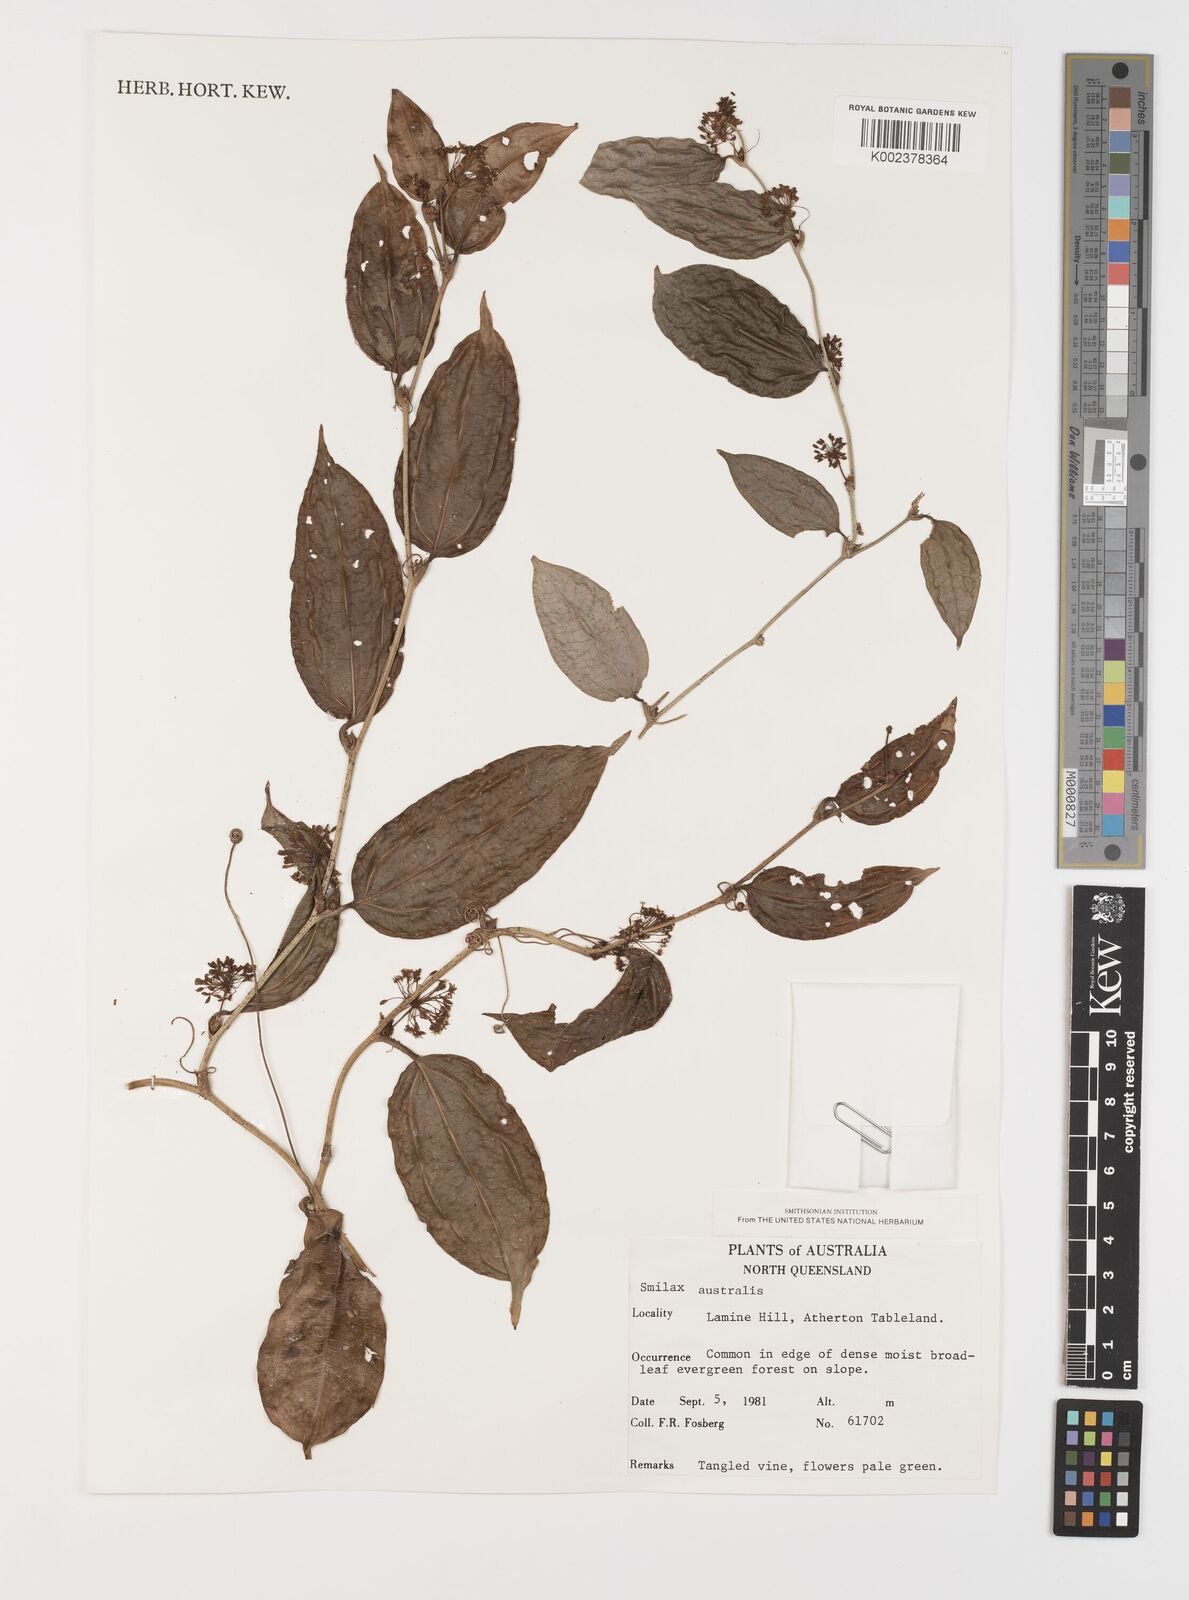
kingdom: Plantae
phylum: Tracheophyta
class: Liliopsida
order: Liliales
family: Smilacaceae
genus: Smilax
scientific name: Smilax australis
